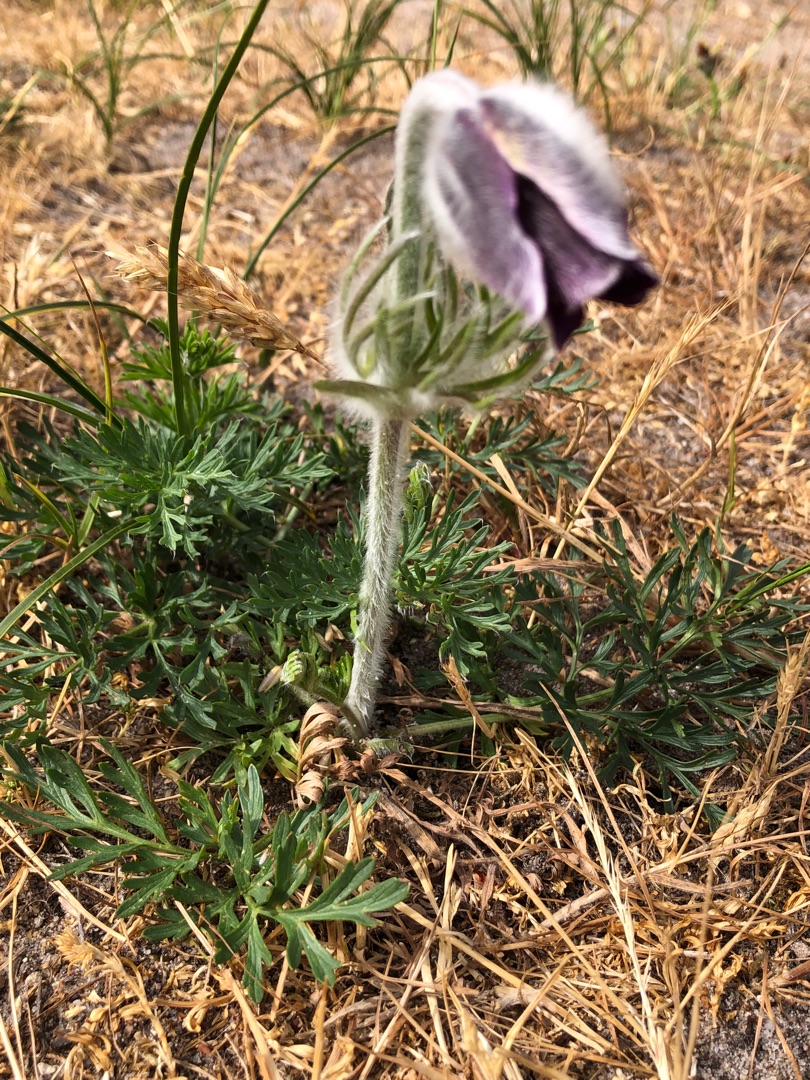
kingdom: Plantae
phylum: Tracheophyta
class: Magnoliopsida
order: Ranunculales
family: Ranunculaceae
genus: Pulsatilla
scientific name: Pulsatilla pratensis
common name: Nikkende kobjælde
